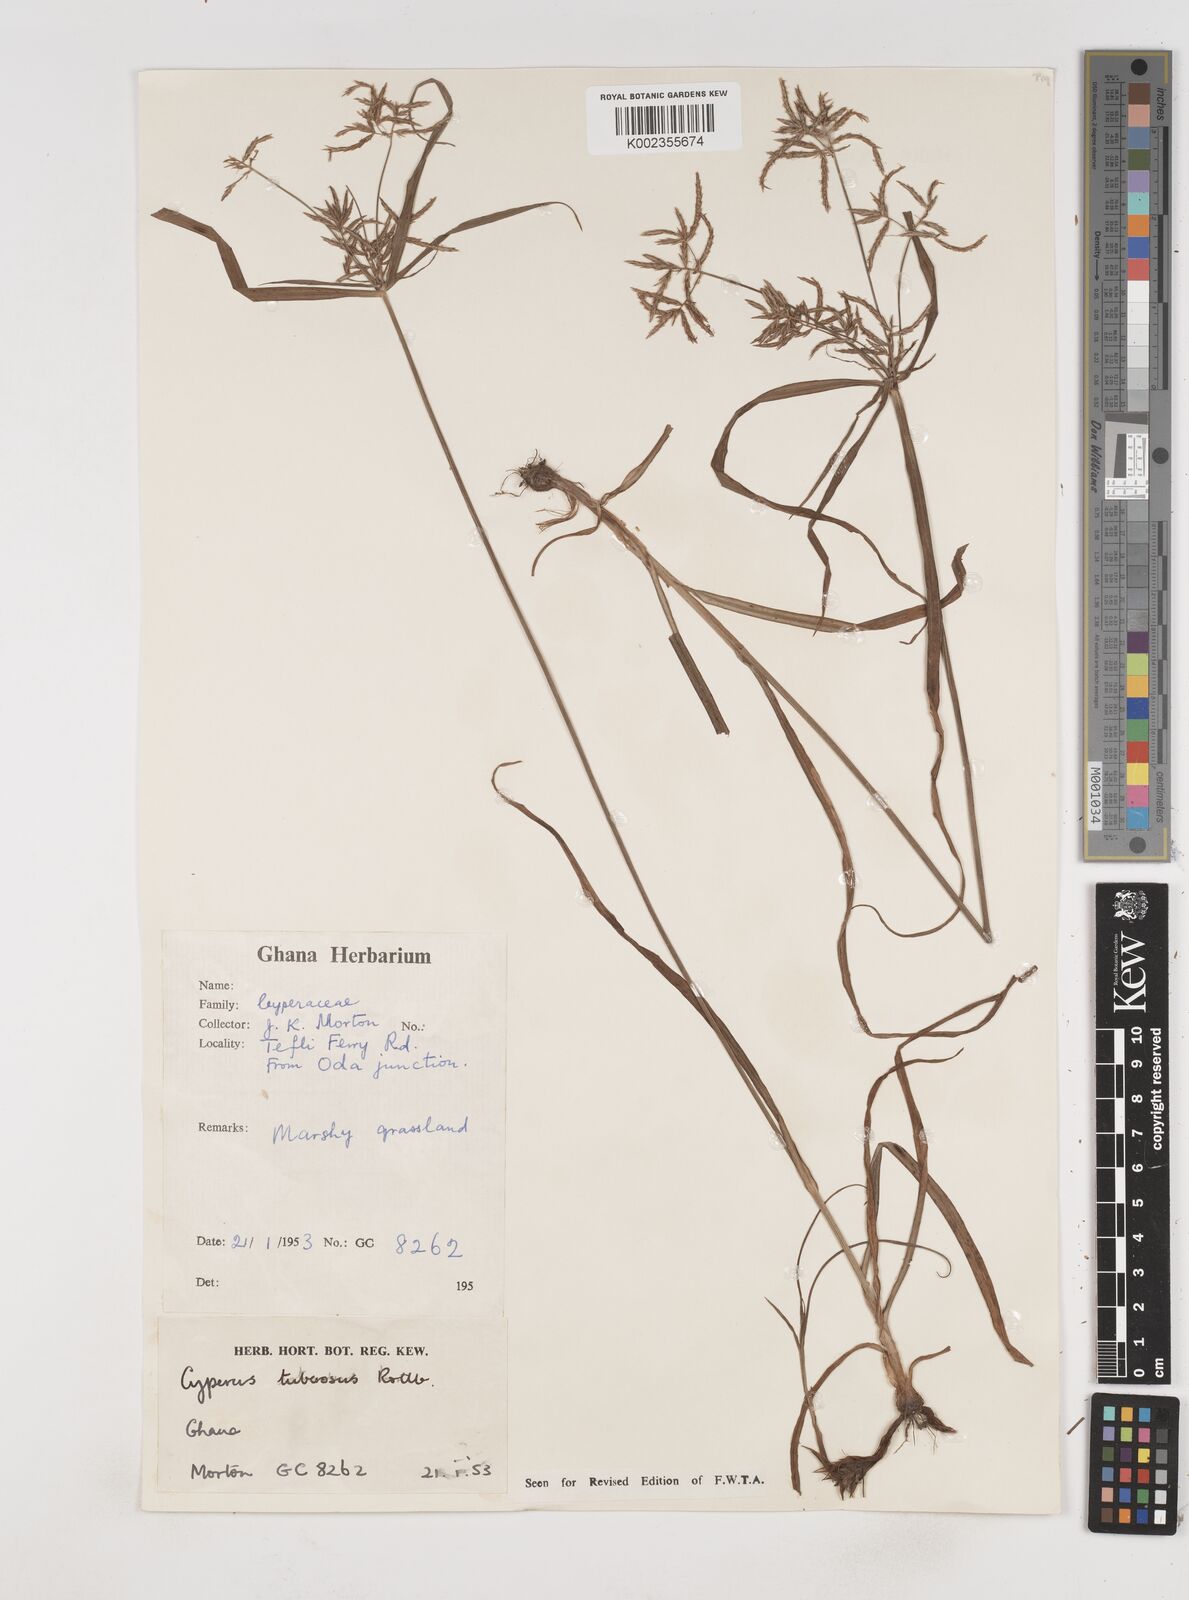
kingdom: Plantae
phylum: Tracheophyta
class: Liliopsida
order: Poales
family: Cyperaceae
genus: Cyperus
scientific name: Cyperus tuberosus
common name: Nut grass
